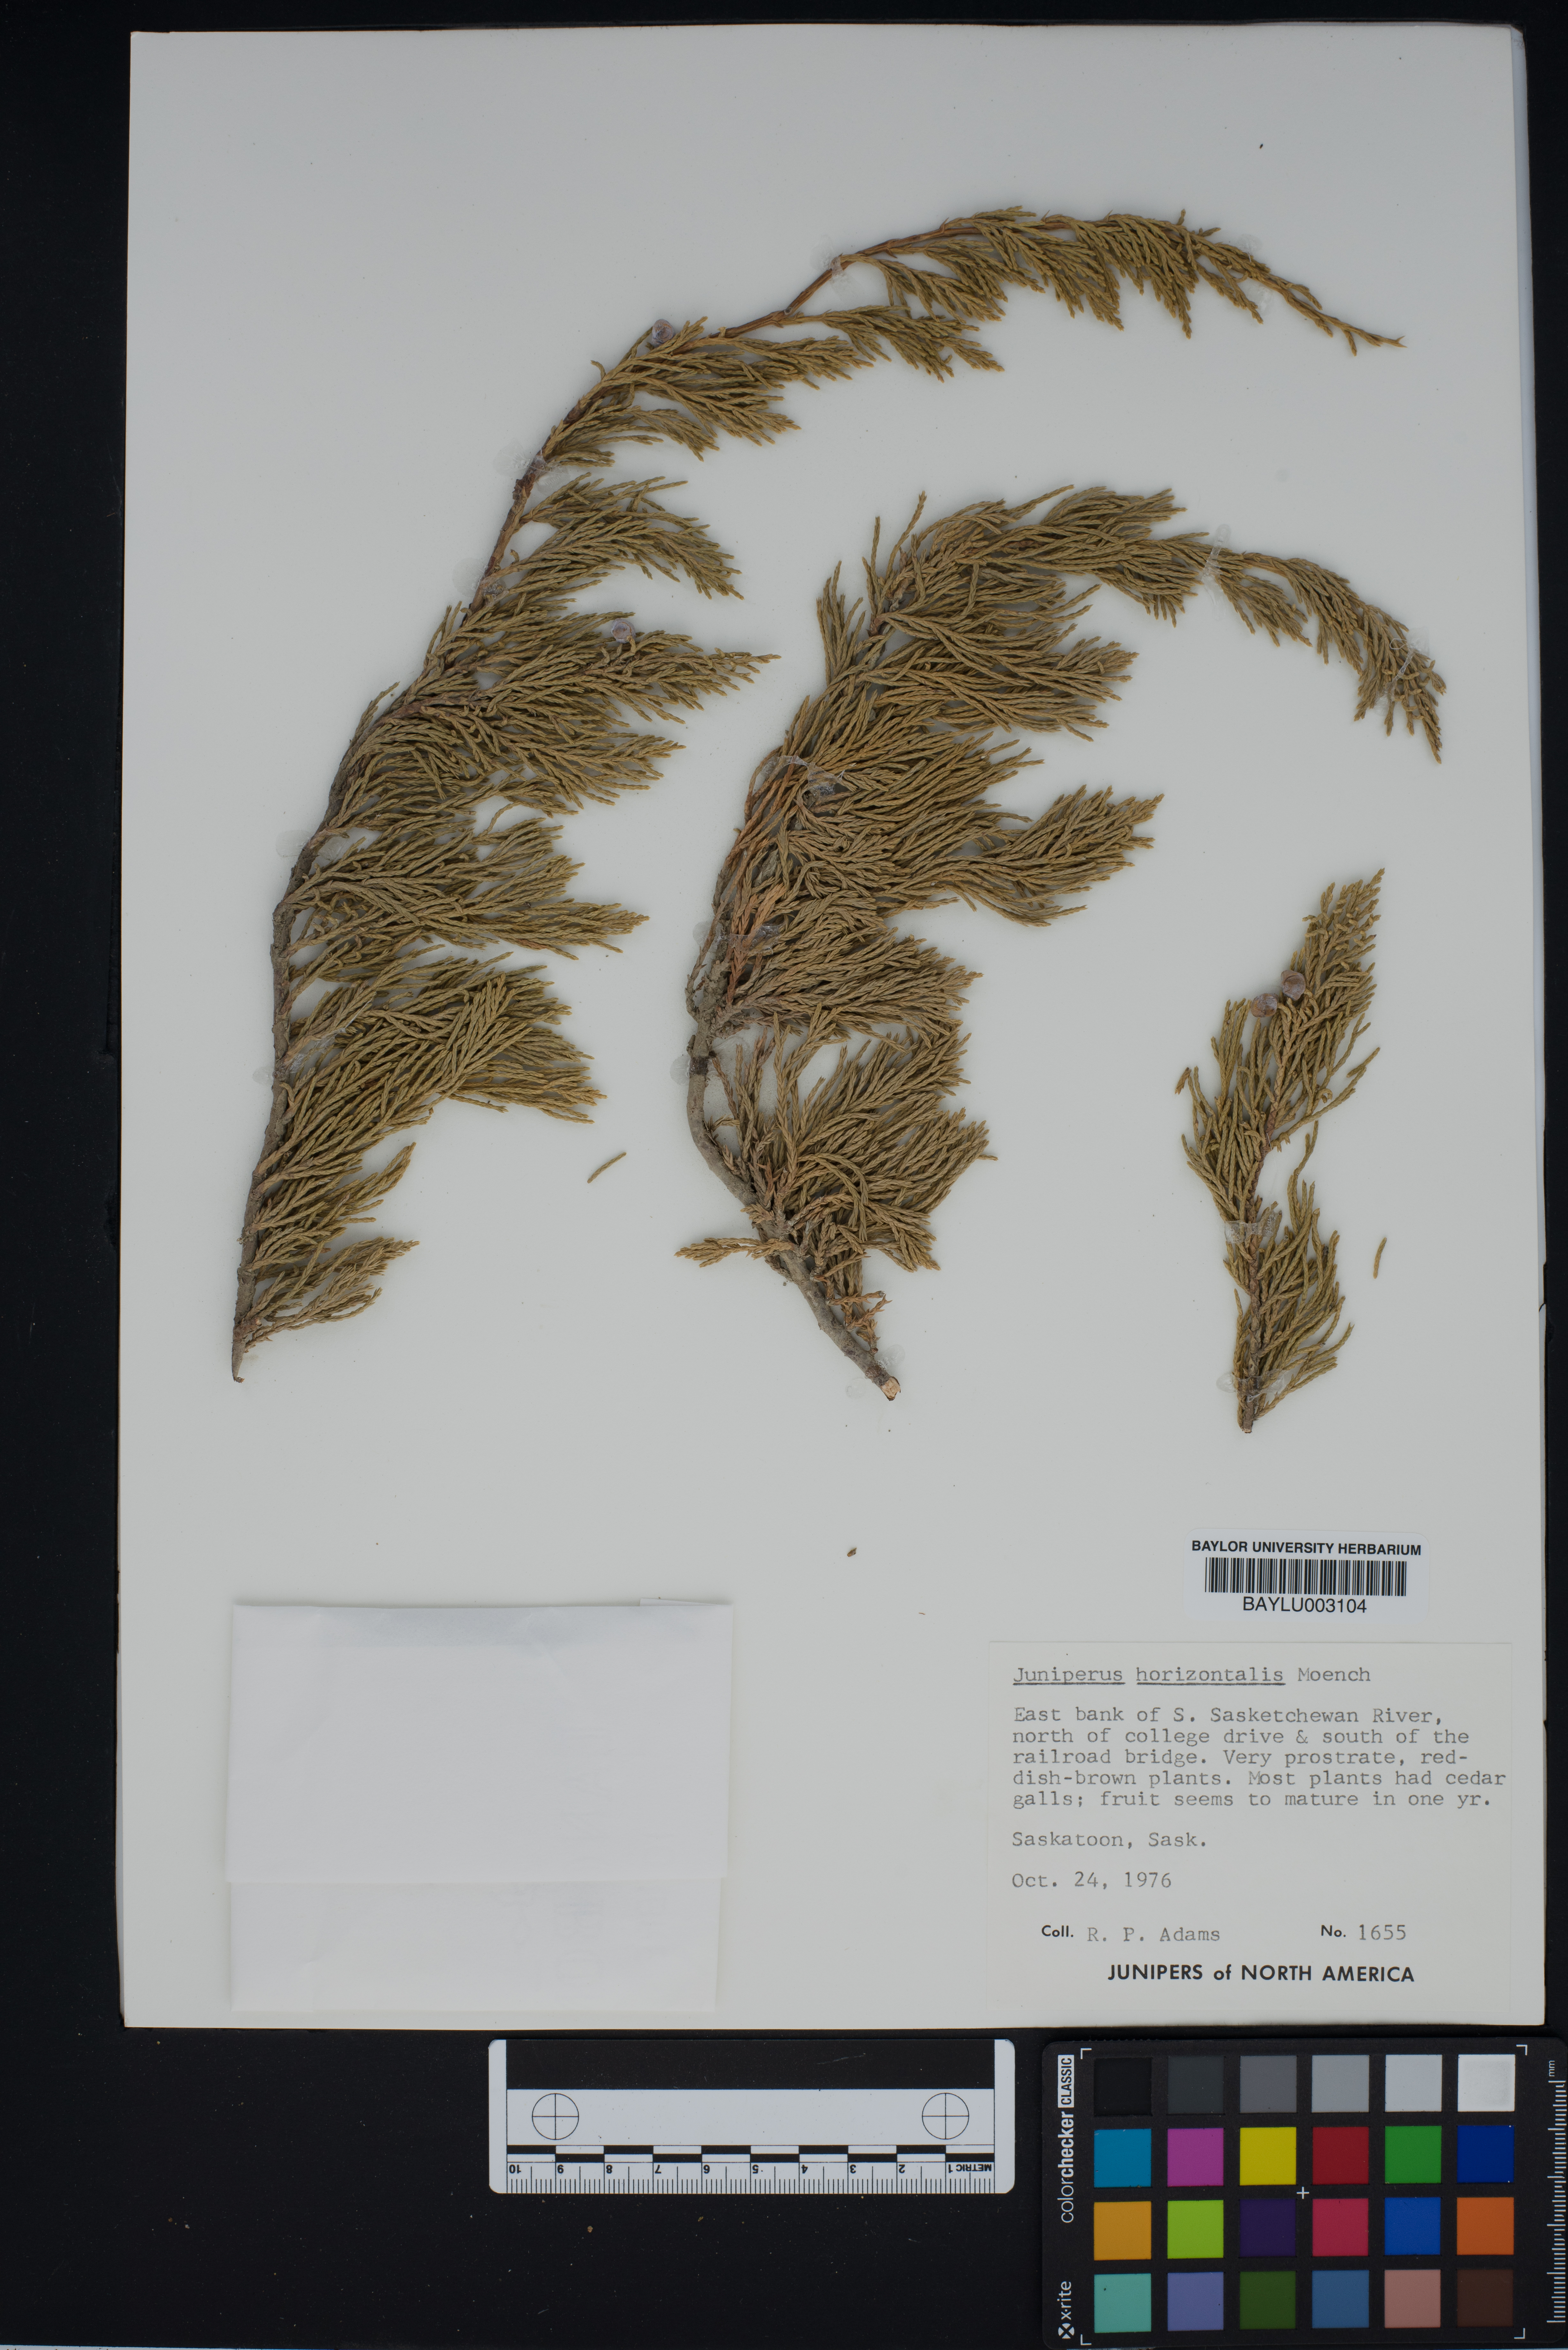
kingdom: Plantae
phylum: Tracheophyta
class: Pinopsida
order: Pinales
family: Cupressaceae
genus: Juniperus
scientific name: Juniperus horizontalis
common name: Creeping juniper
